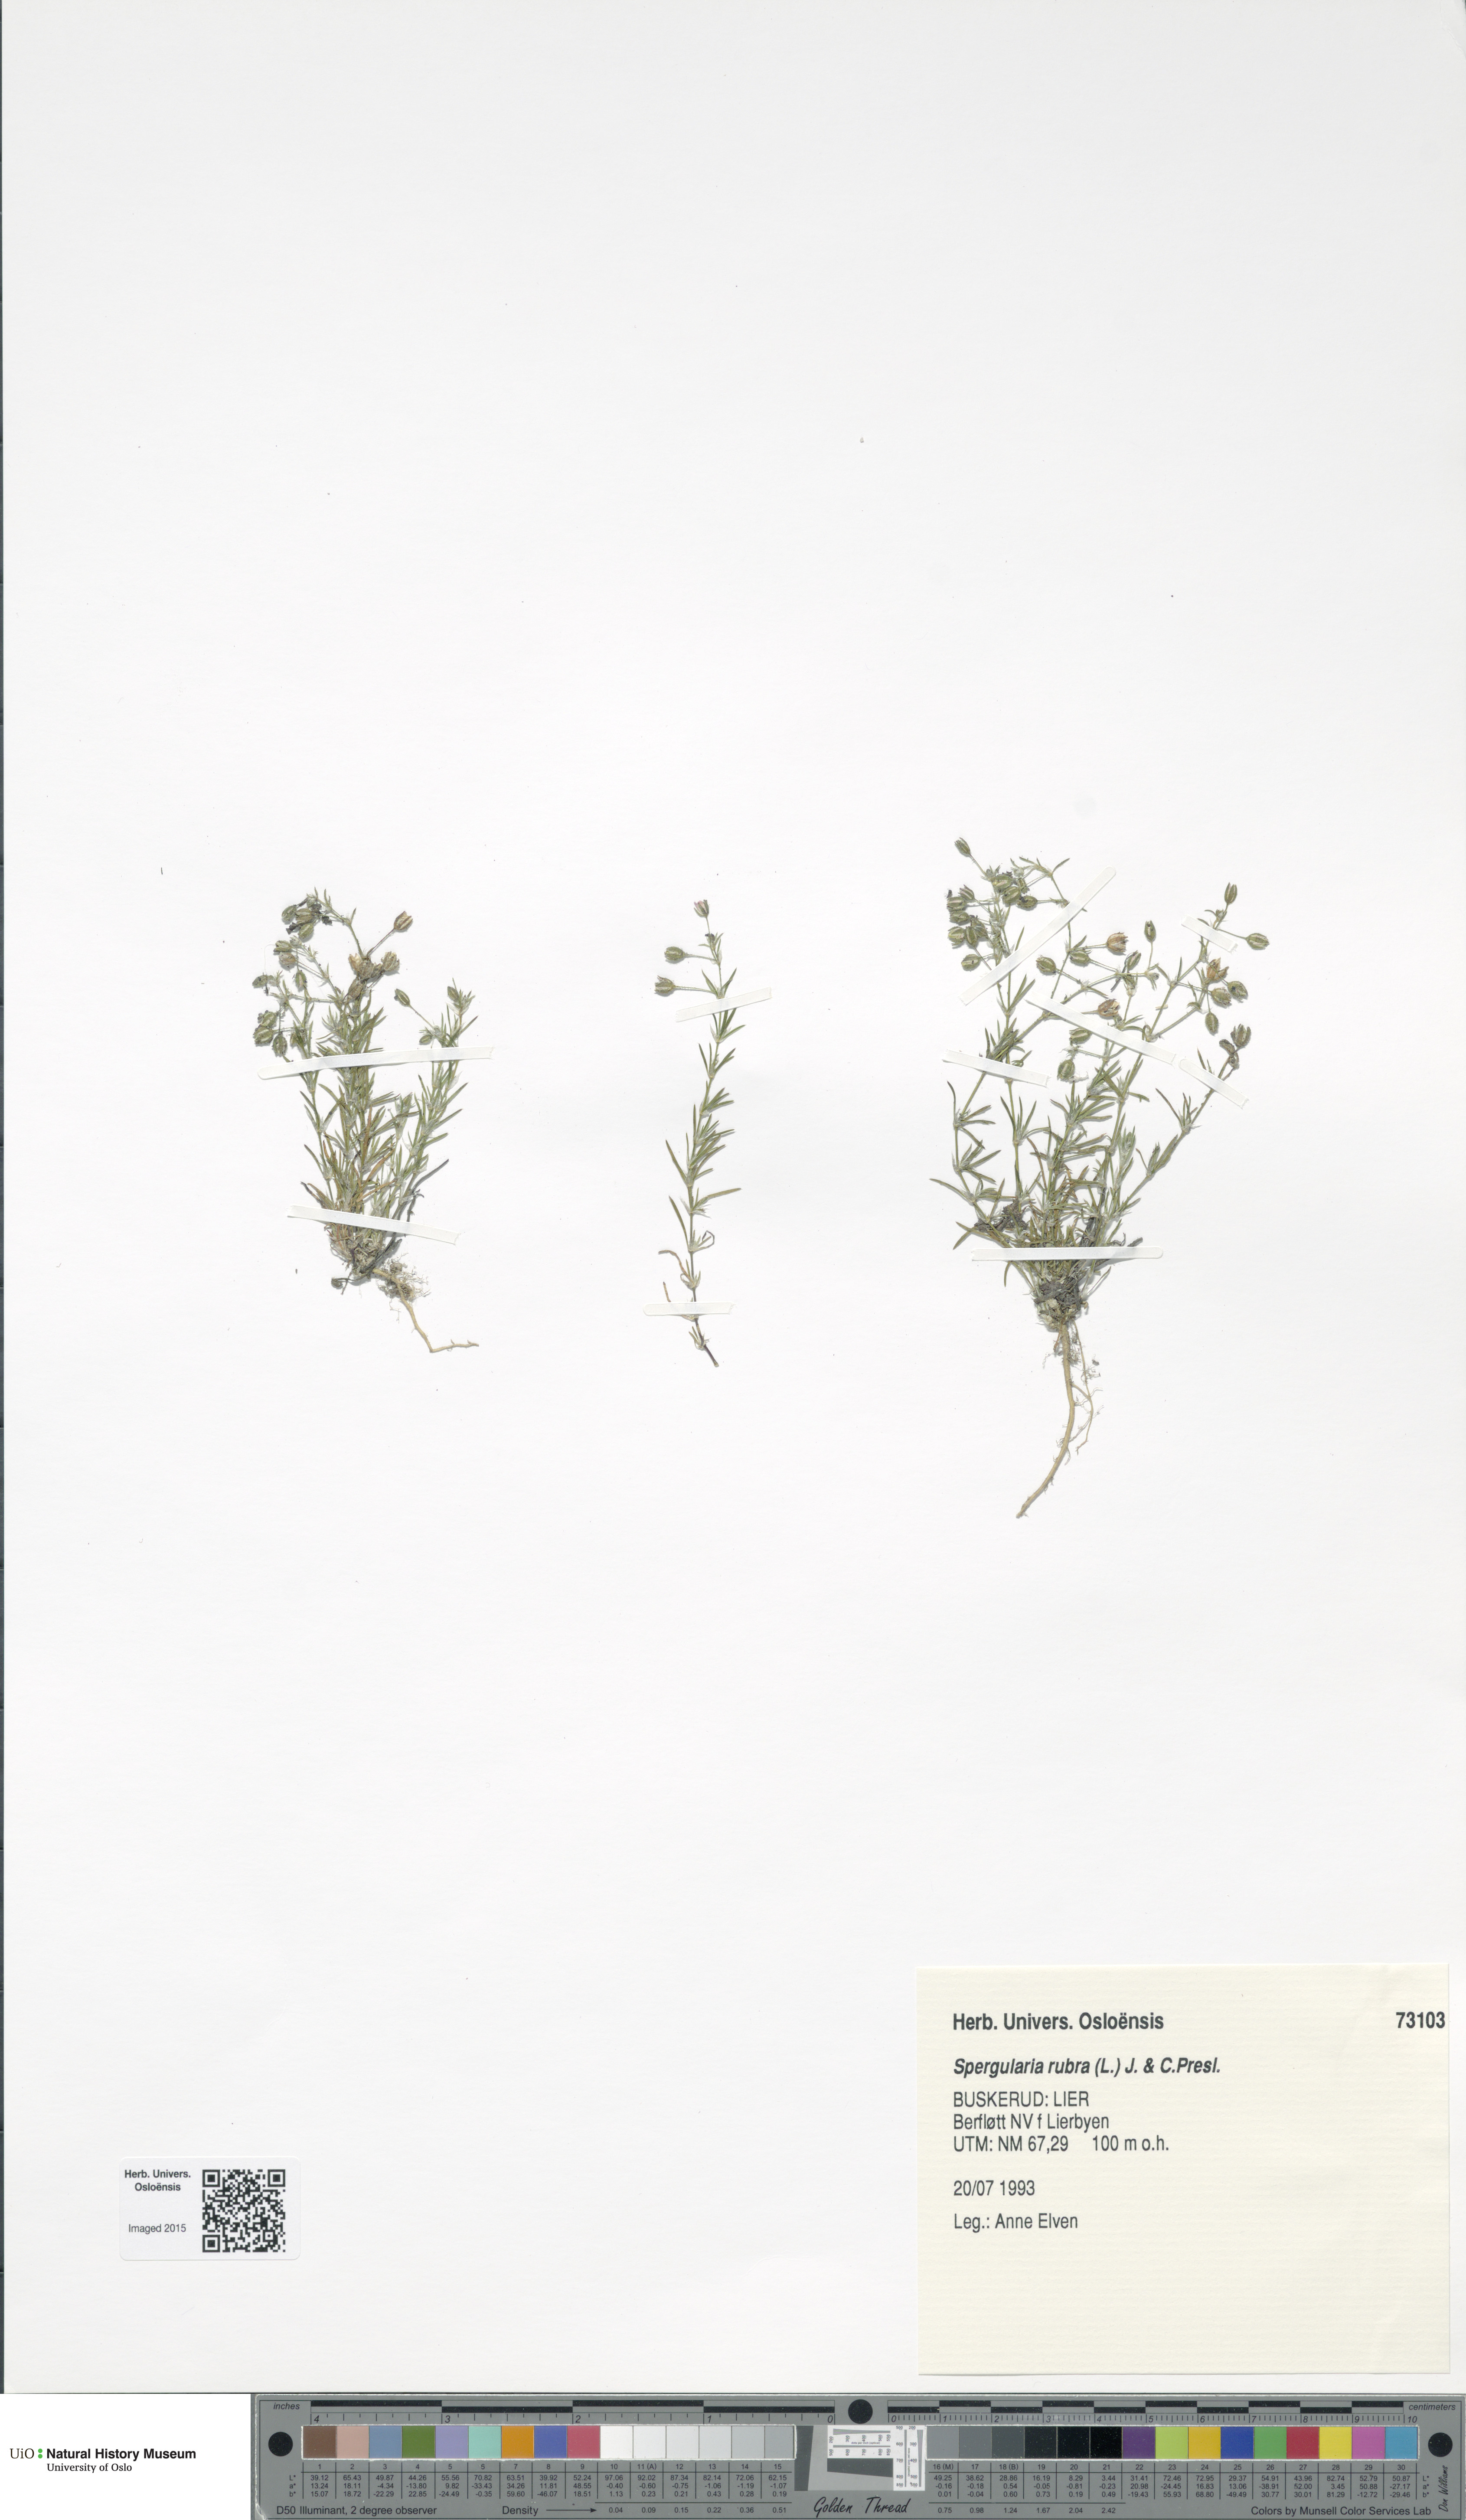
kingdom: Plantae
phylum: Tracheophyta
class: Magnoliopsida
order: Caryophyllales
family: Caryophyllaceae
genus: Spergularia
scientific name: Spergularia rubra
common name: Red sand-spurrey
